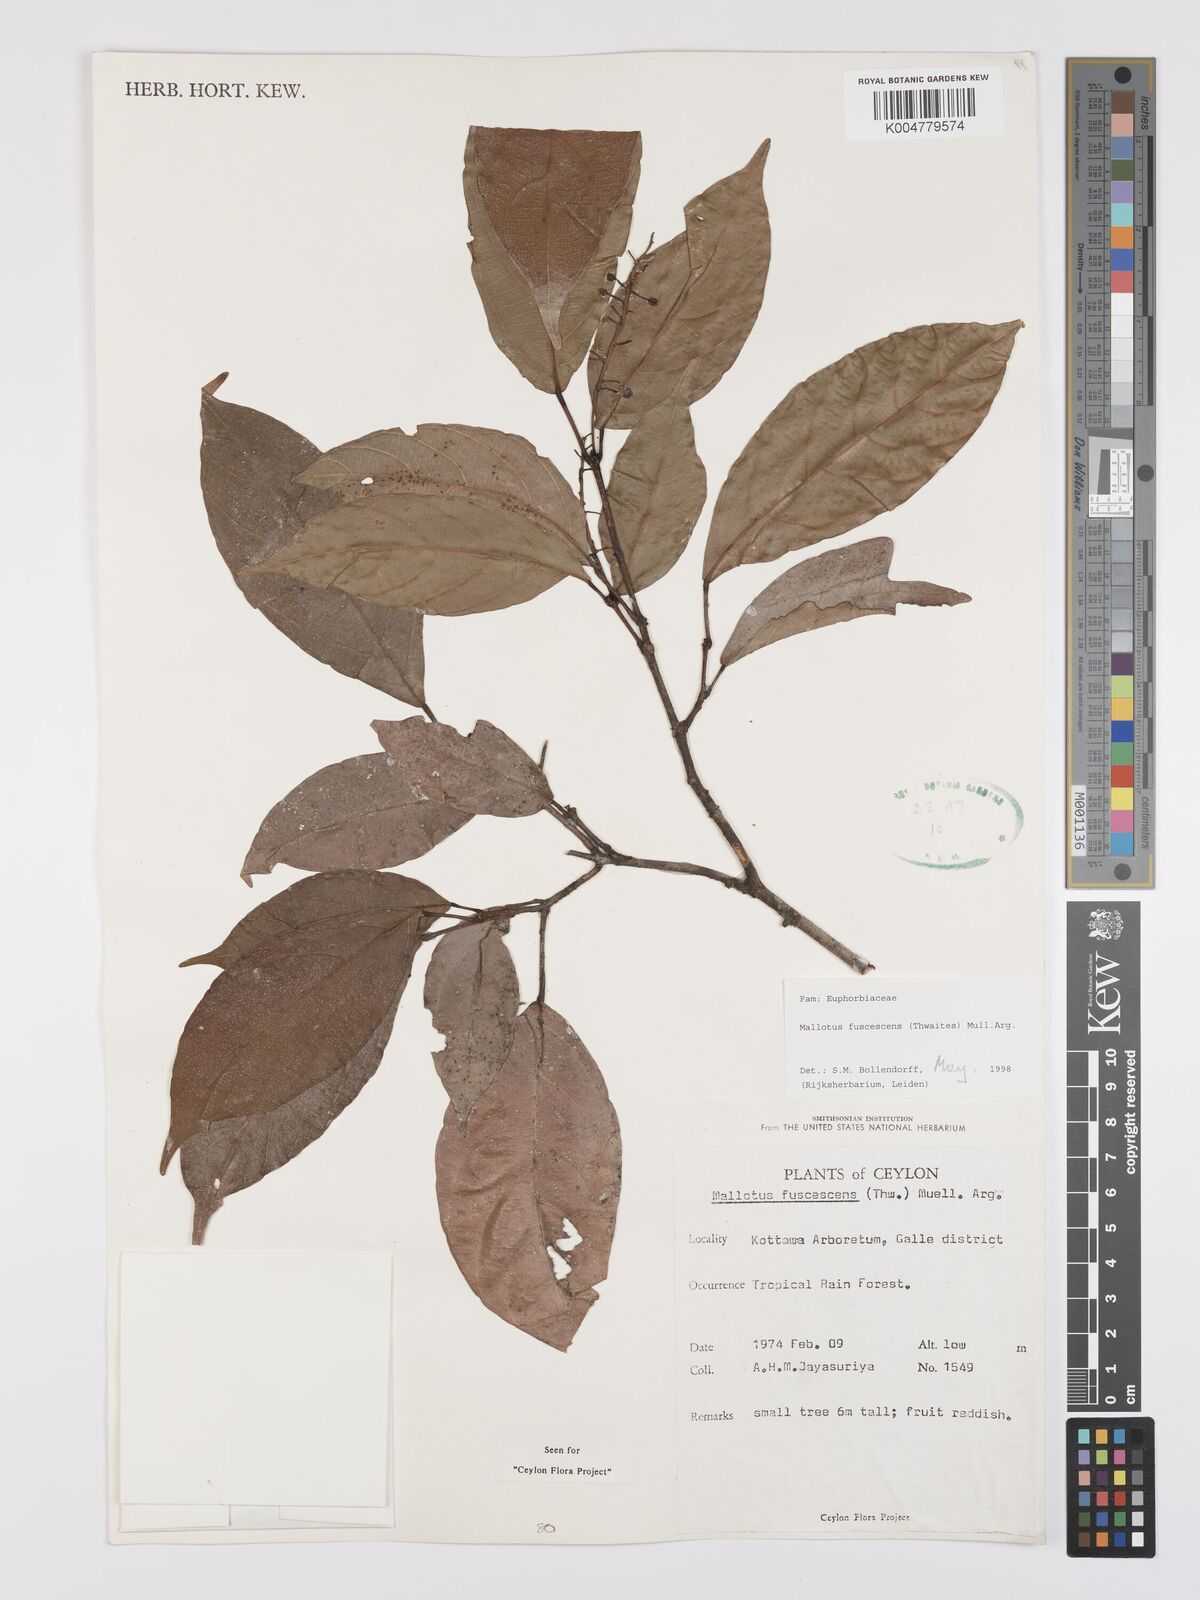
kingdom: Plantae
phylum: Tracheophyta
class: Magnoliopsida
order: Malpighiales
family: Euphorbiaceae
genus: Mallotus
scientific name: Mallotus fuscescens
